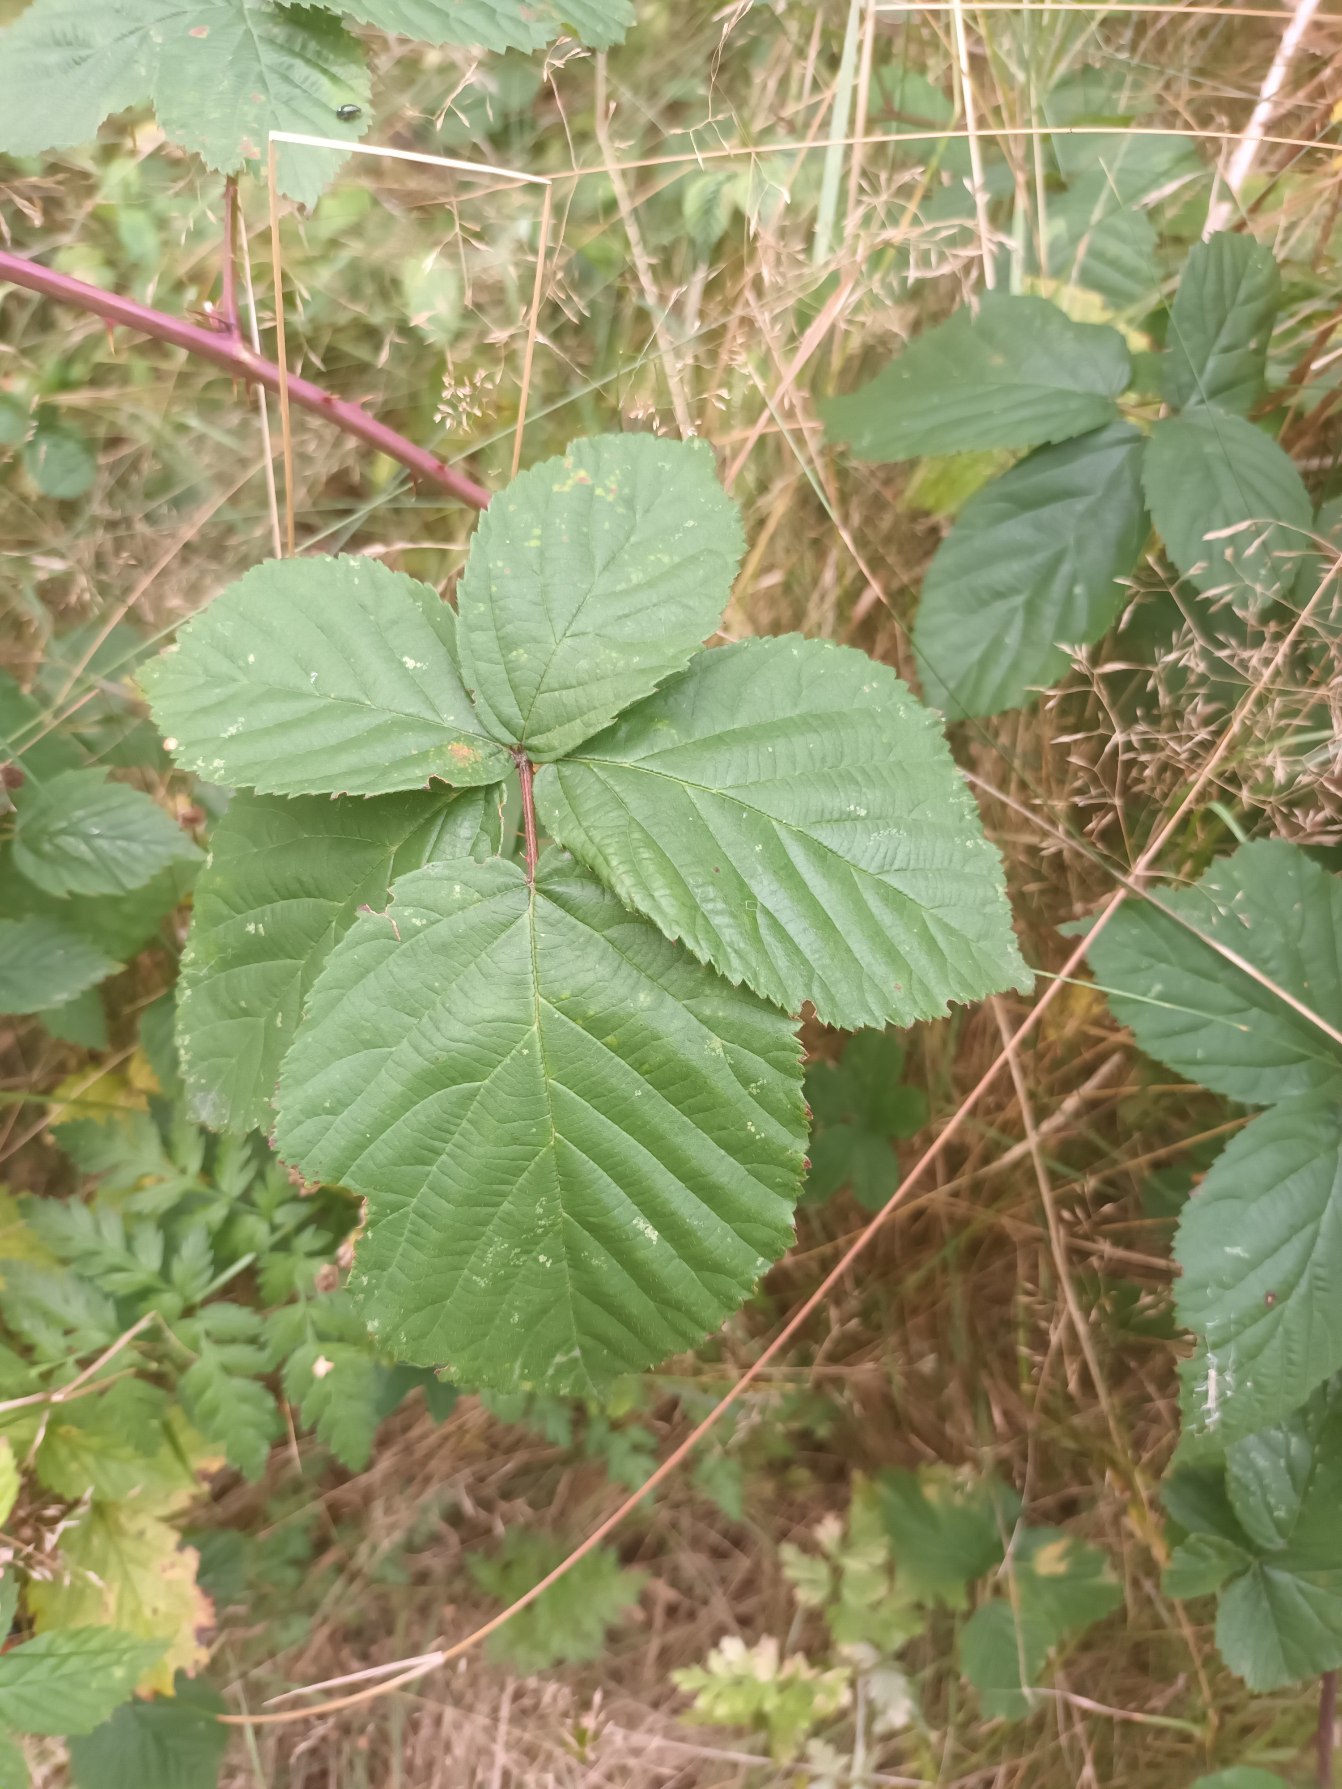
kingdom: Plantae
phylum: Tracheophyta
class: Magnoliopsida
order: Rosales
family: Rosaceae
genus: Rubus
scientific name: Rubus plicatus
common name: Almindelig brombær
